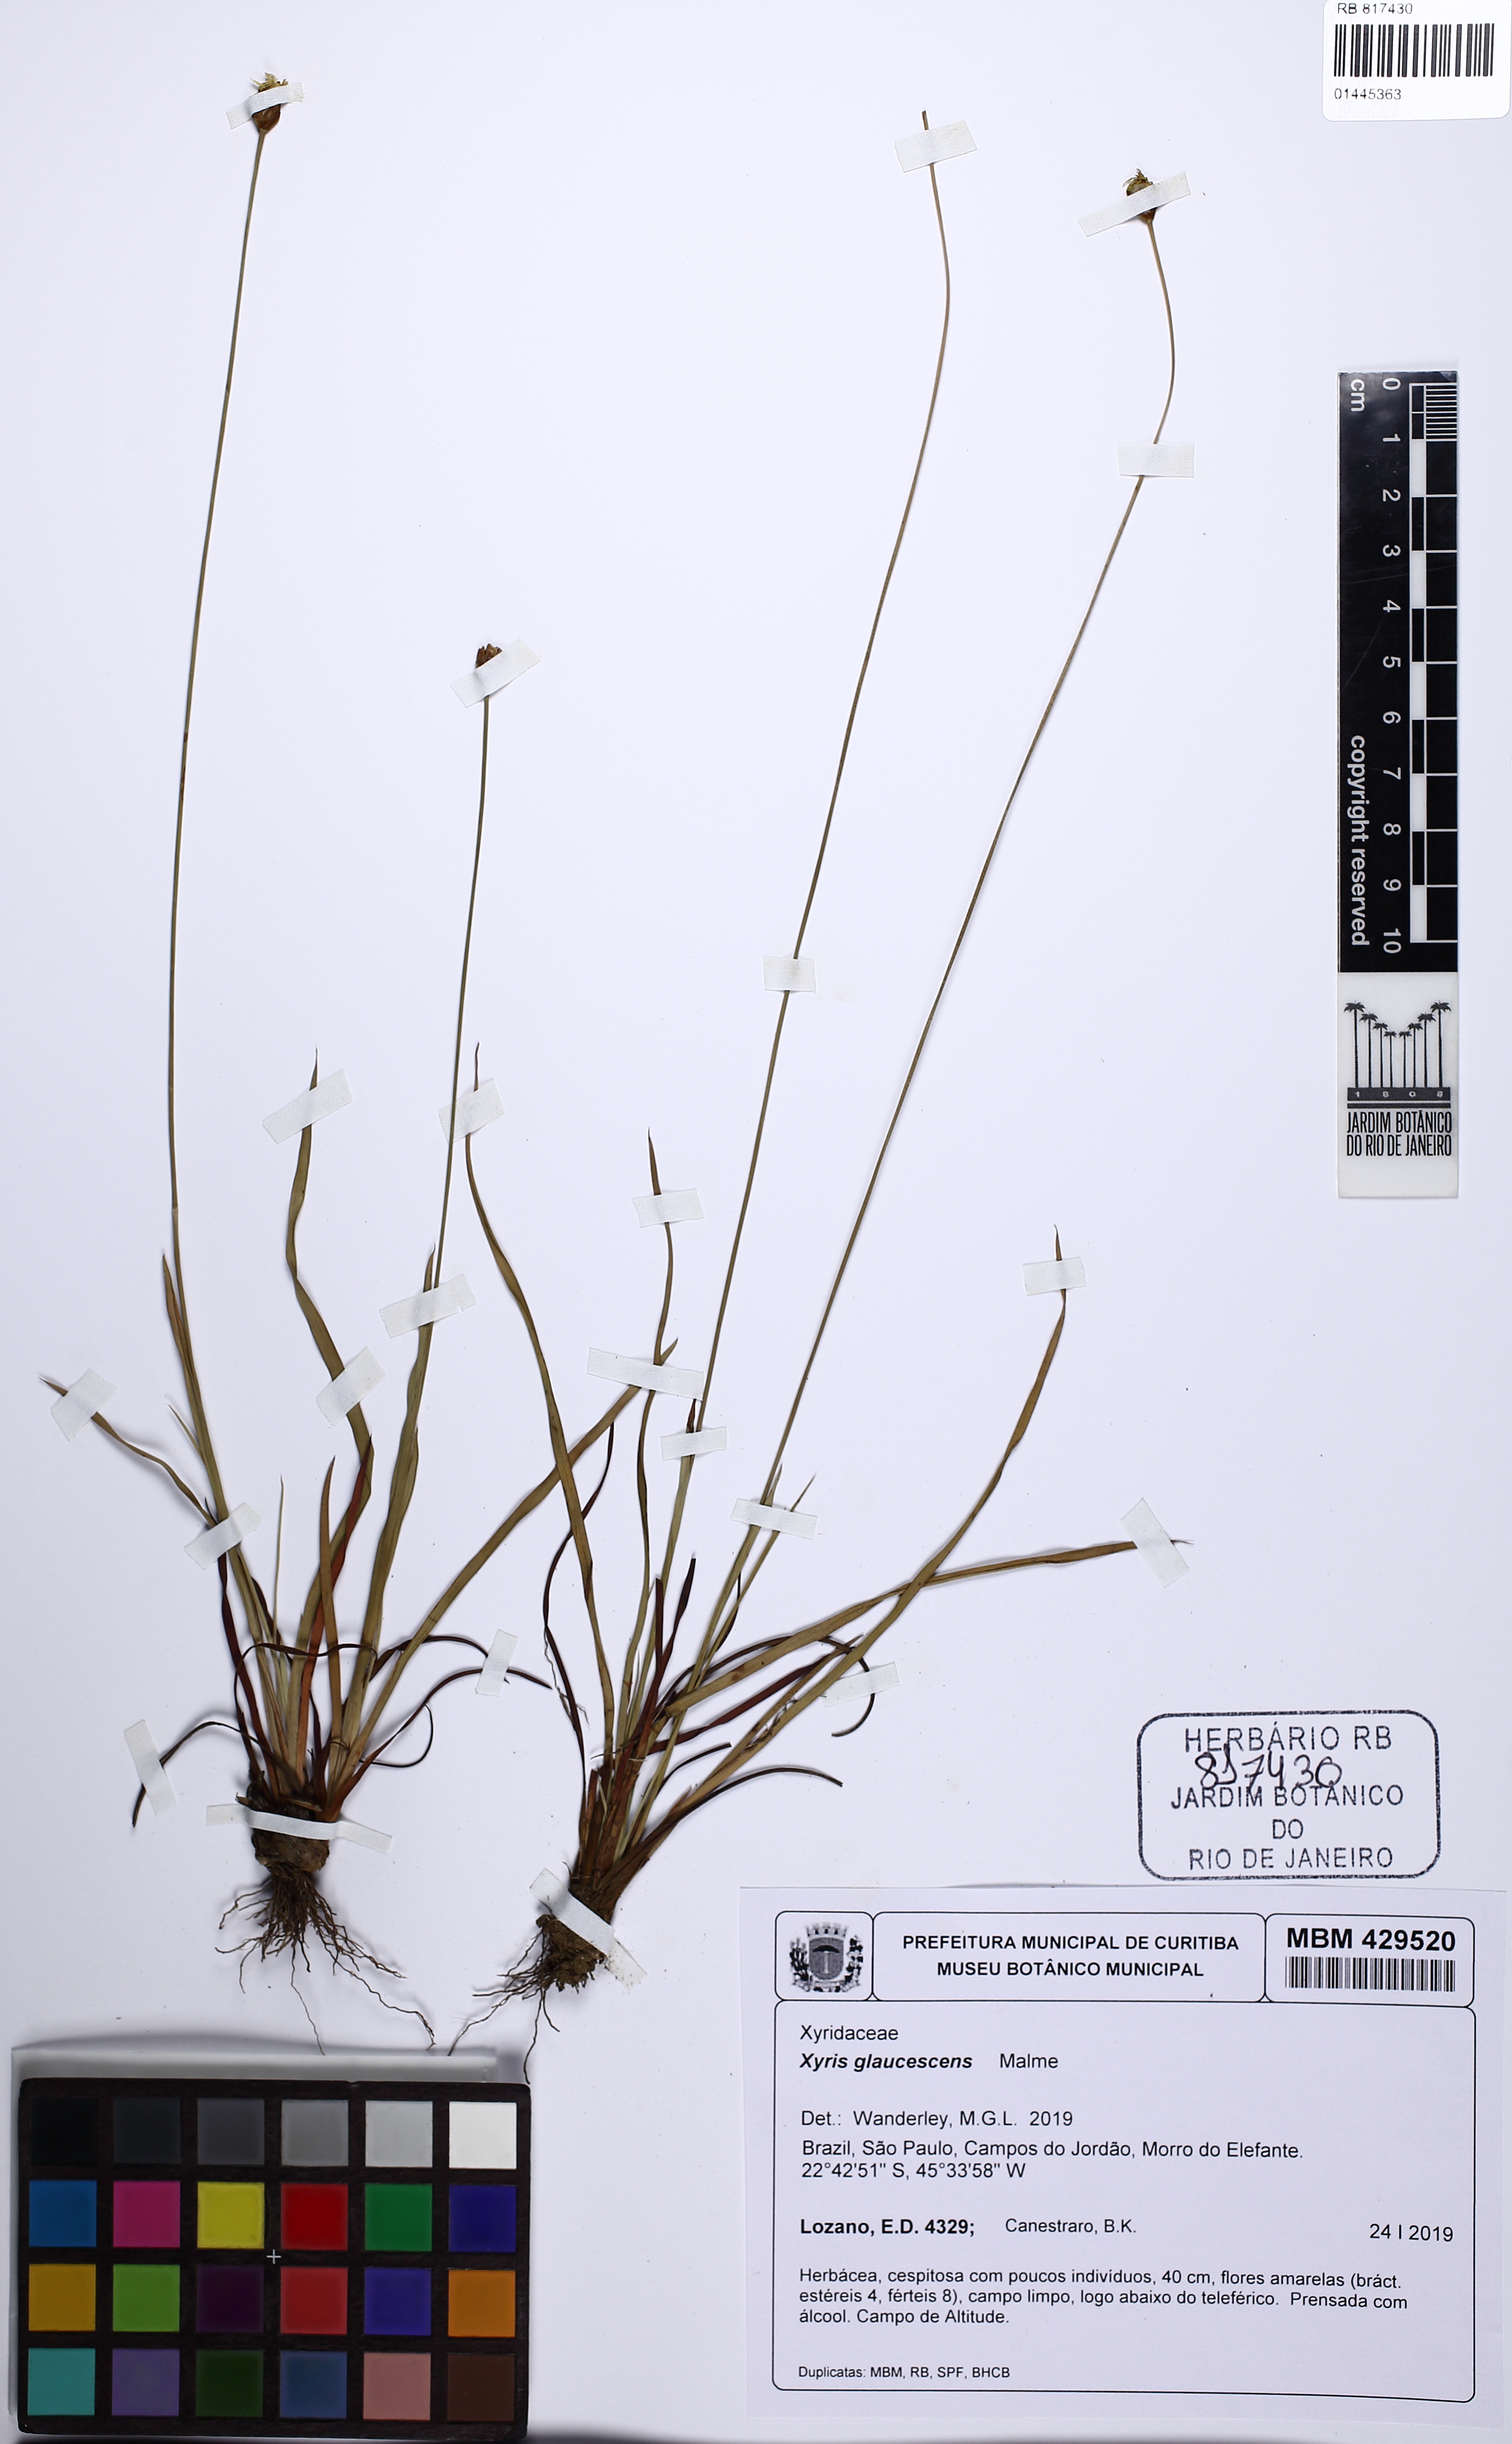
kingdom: Plantae
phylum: Tracheophyta
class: Liliopsida
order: Poales
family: Xyridaceae
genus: Xyris
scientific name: Xyris trachyphylla
